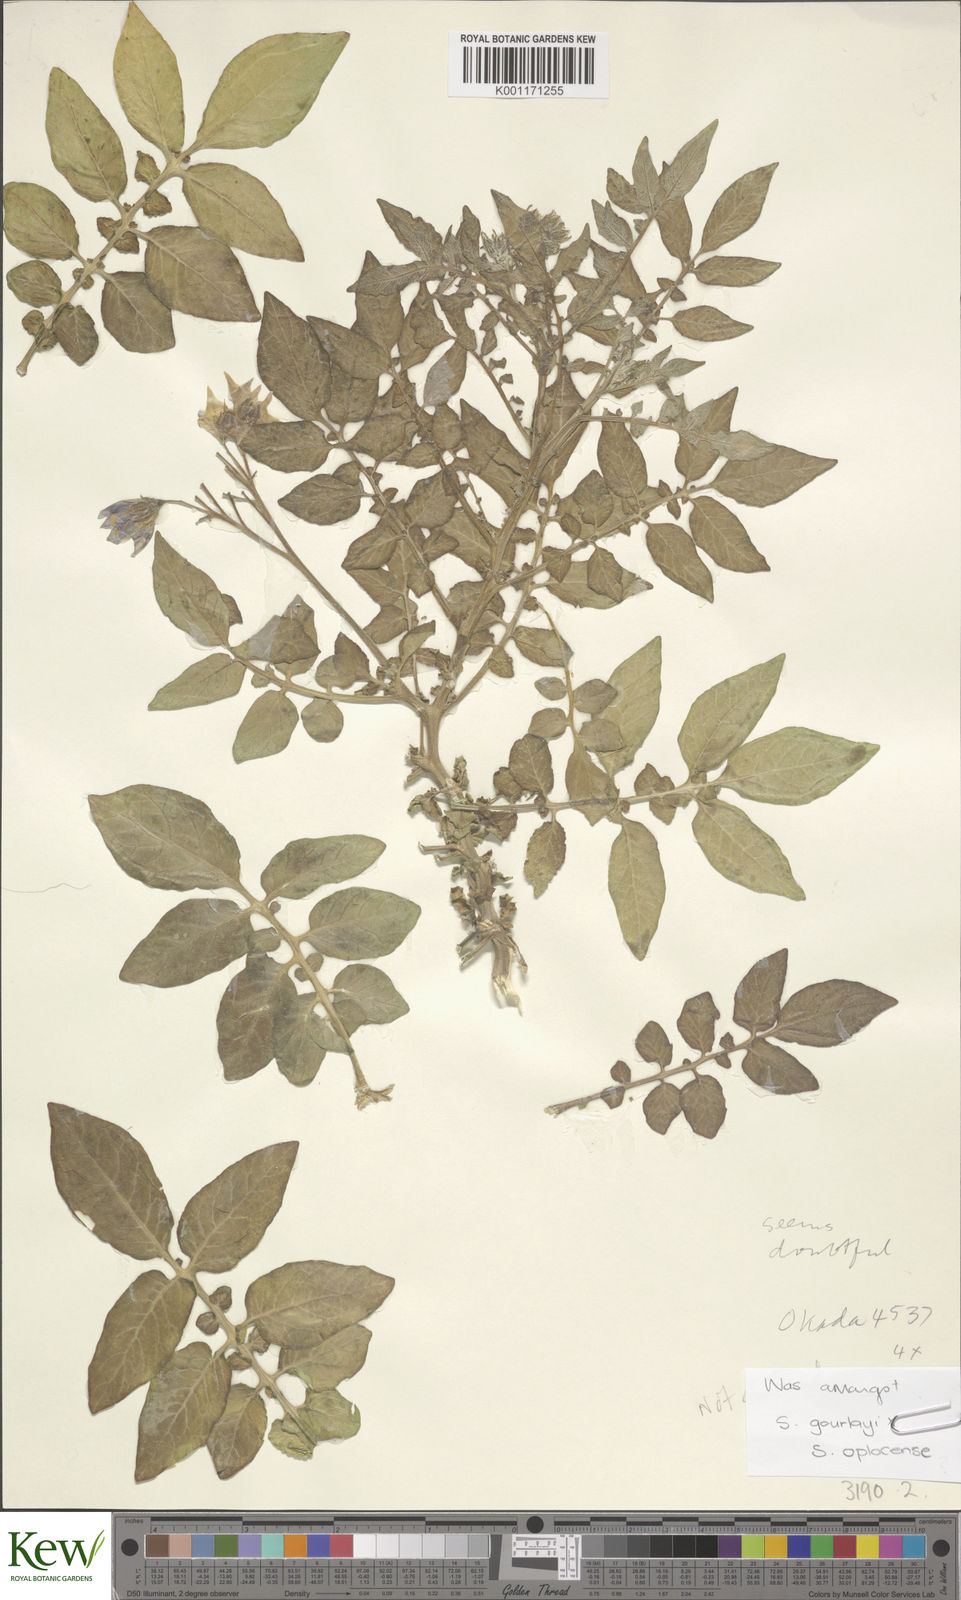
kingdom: Plantae
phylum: Tracheophyta
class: Magnoliopsida
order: Solanales
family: Solanaceae
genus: Solanum
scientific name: Solanum brevicaule
